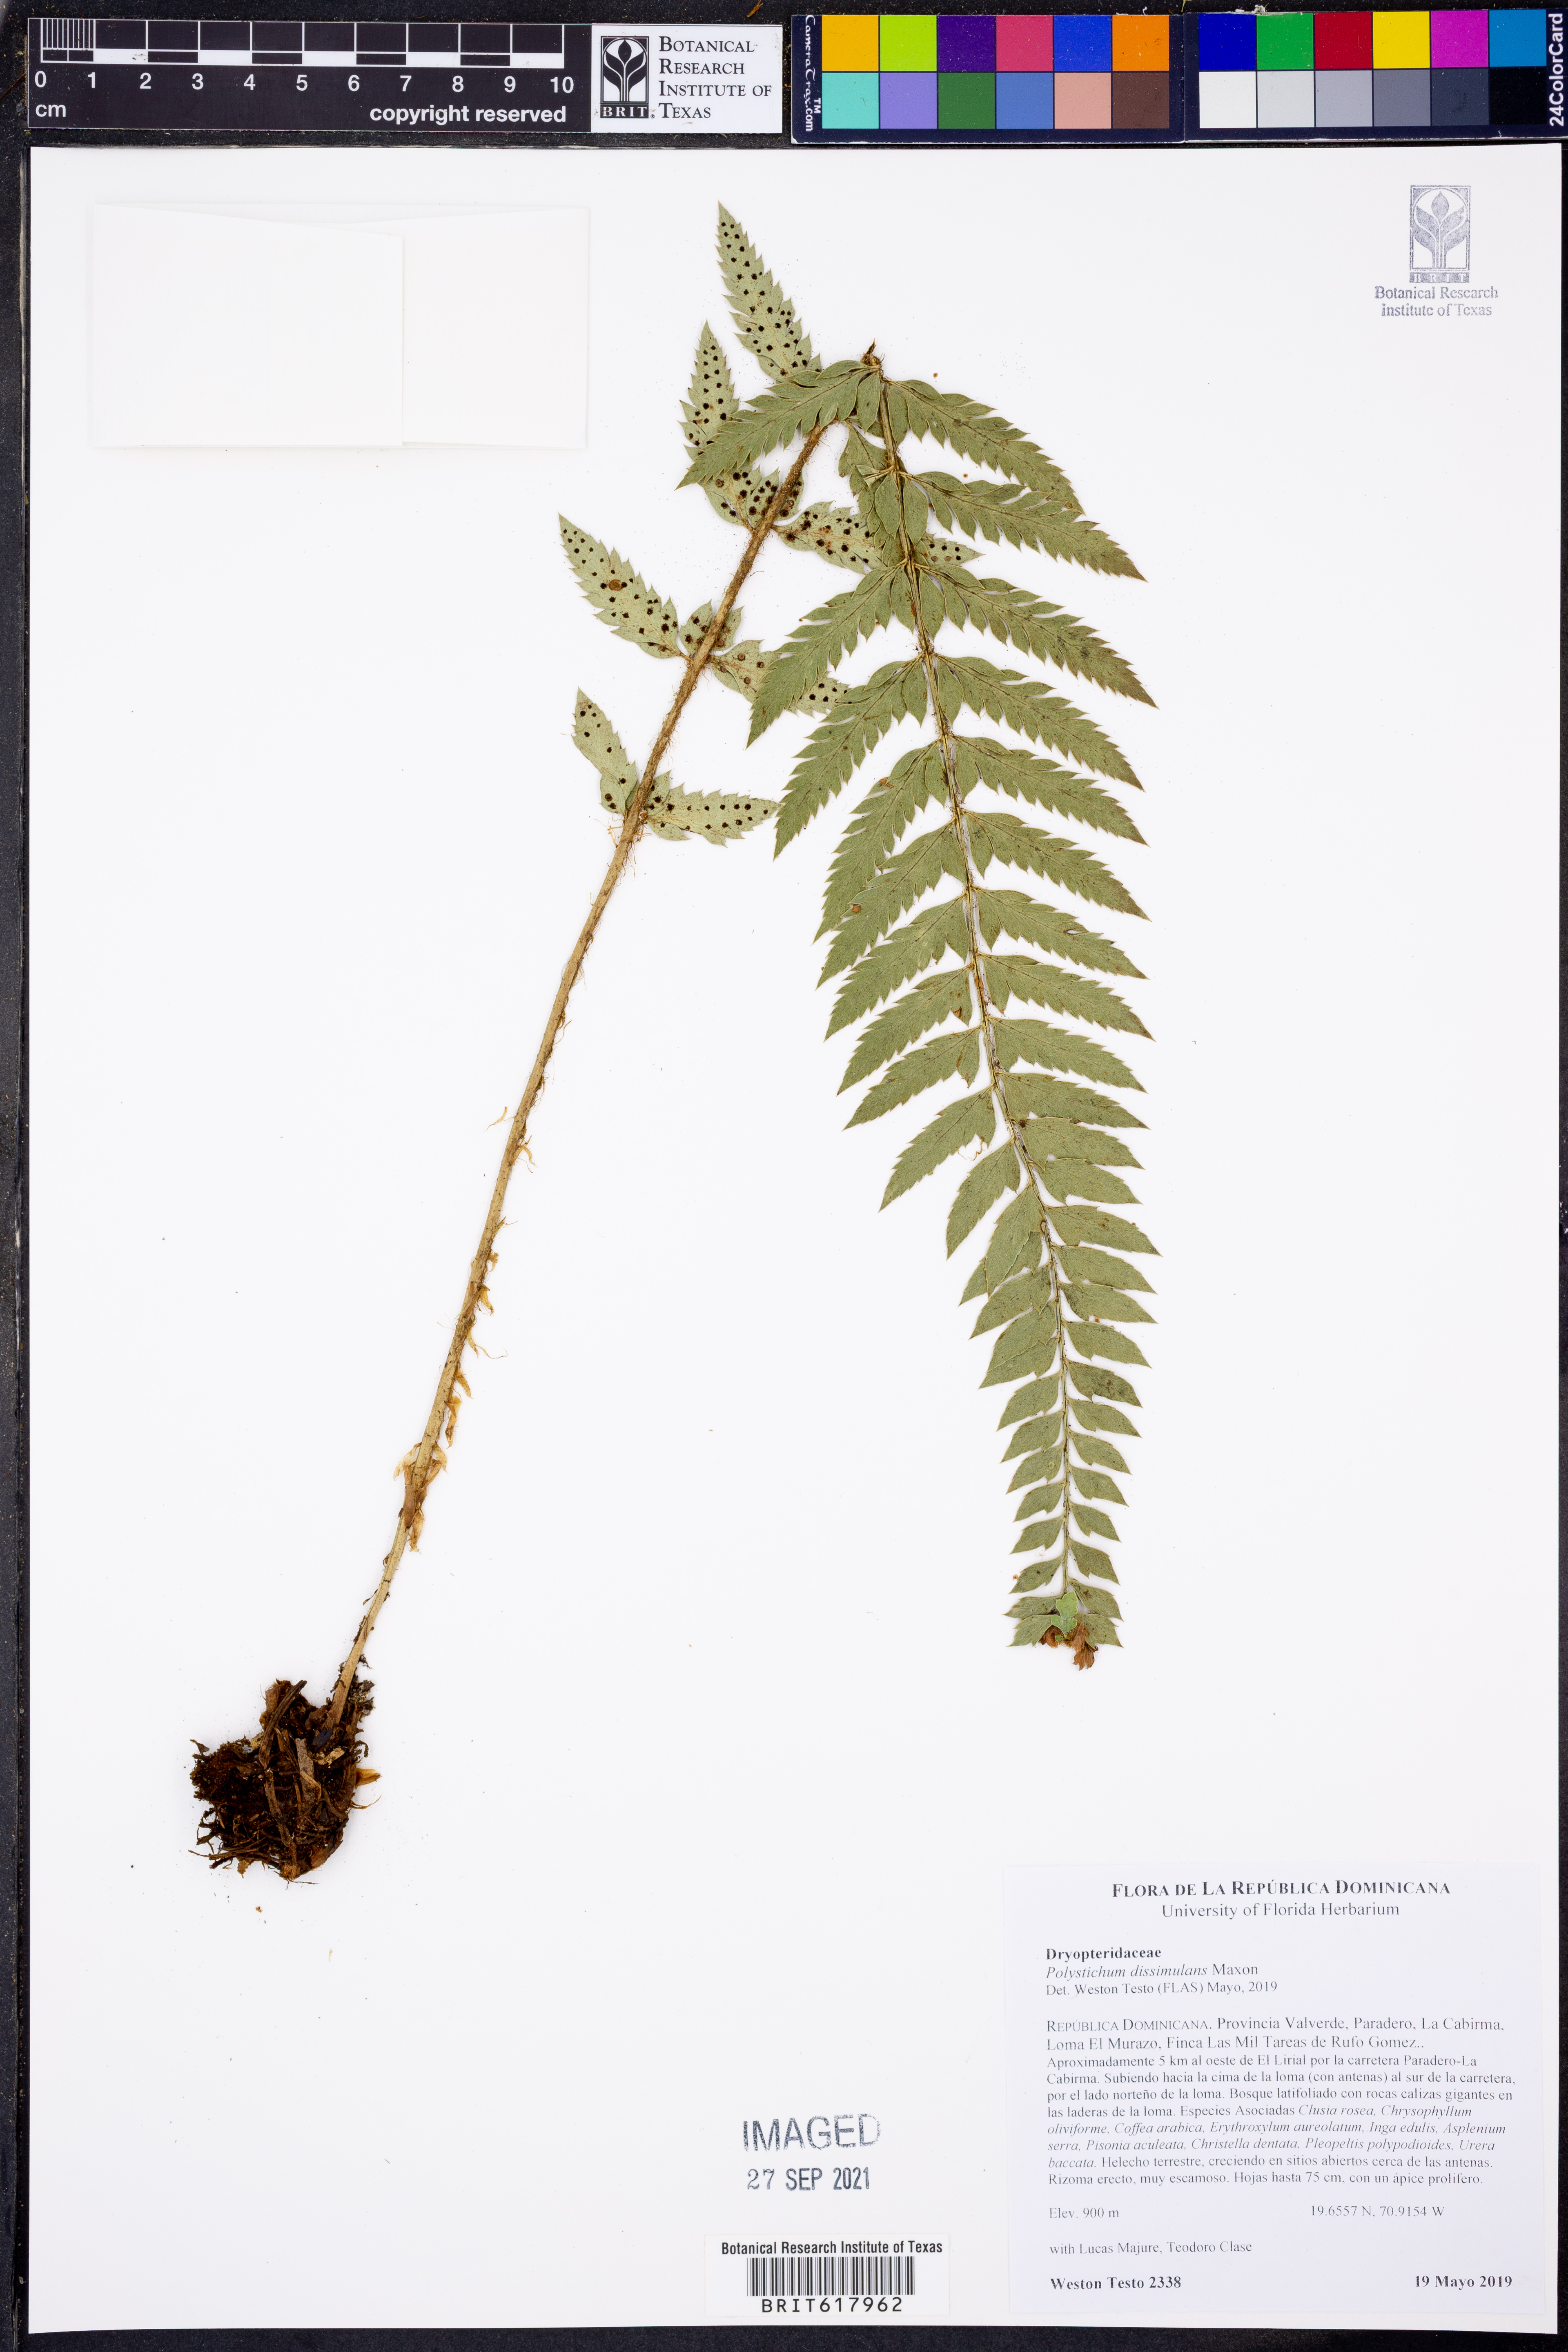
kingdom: Plantae
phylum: Tracheophyta
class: Polypodiopsida
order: Polypodiales
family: Dryopteridaceae
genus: Polystichum
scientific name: Polystichum dissimulans
